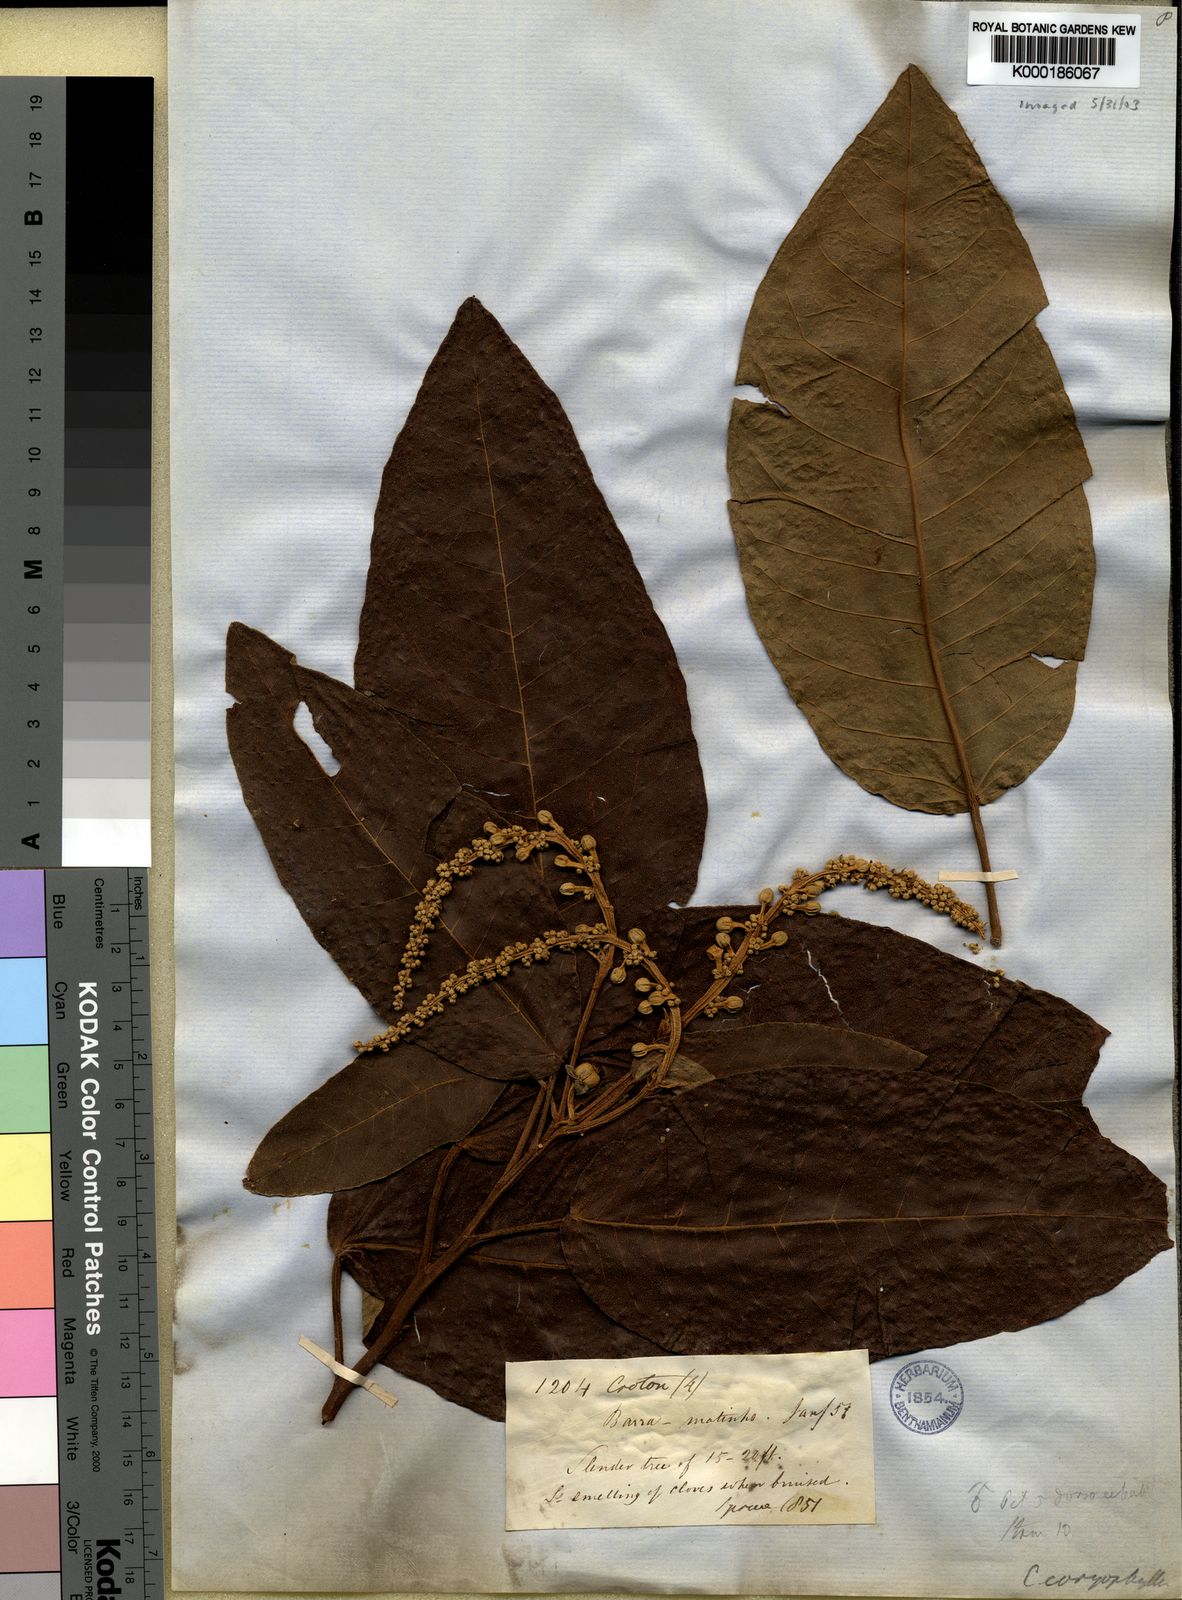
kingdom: Plantae
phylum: Tracheophyta
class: Magnoliopsida
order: Malpighiales
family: Euphorbiaceae
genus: Croton
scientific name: Croton matourensis
